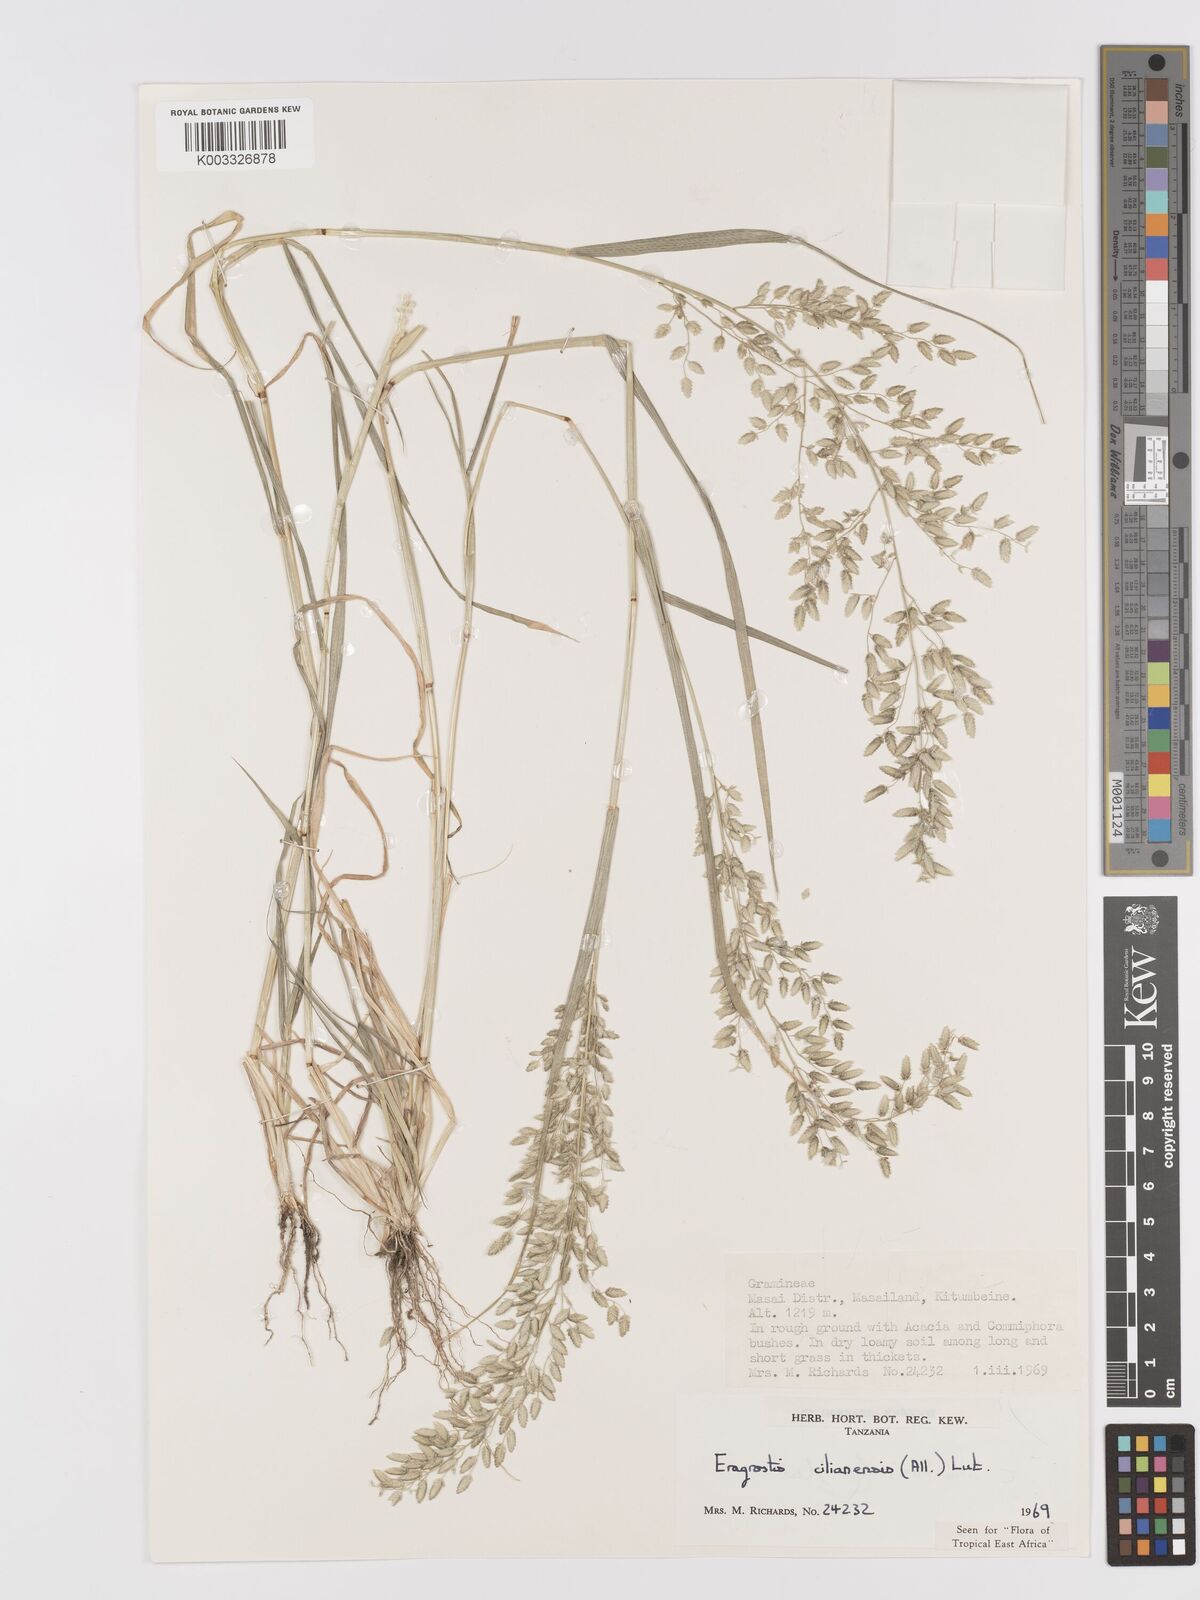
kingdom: Plantae
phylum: Tracheophyta
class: Liliopsida
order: Poales
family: Poaceae
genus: Eragrostis
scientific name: Eragrostis cilianensis
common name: Stinkgrass
